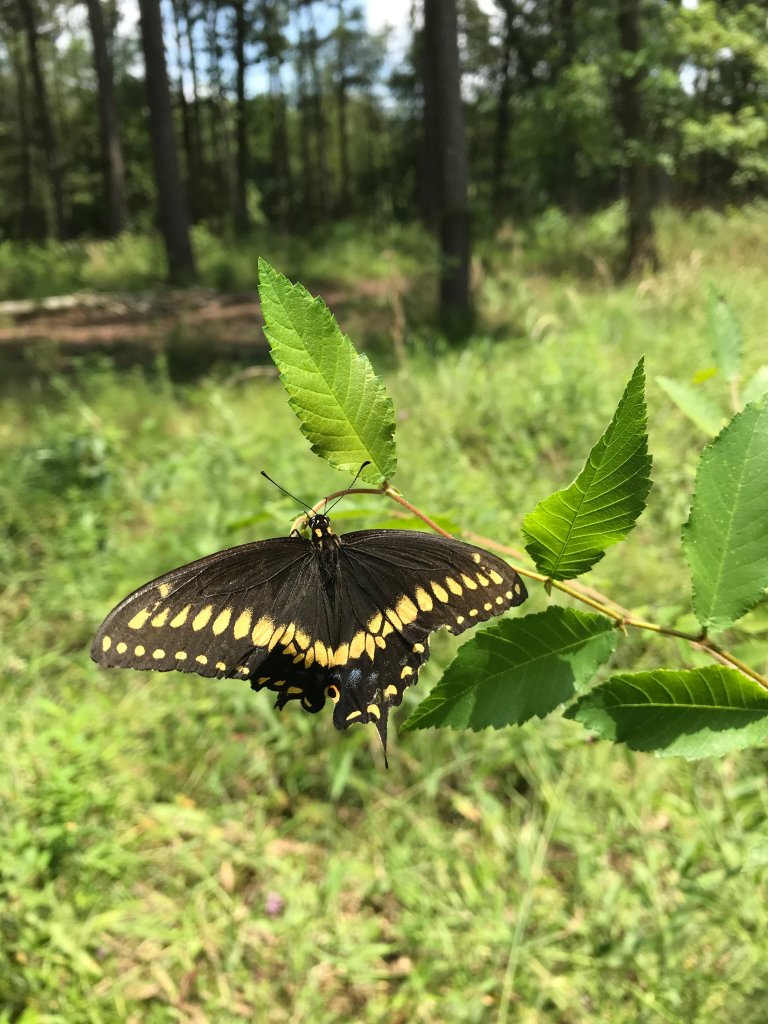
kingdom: Animalia
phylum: Arthropoda
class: Insecta
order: Lepidoptera
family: Papilionidae
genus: Papilio
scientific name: Papilio polyxenes
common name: Black Swallowtail
